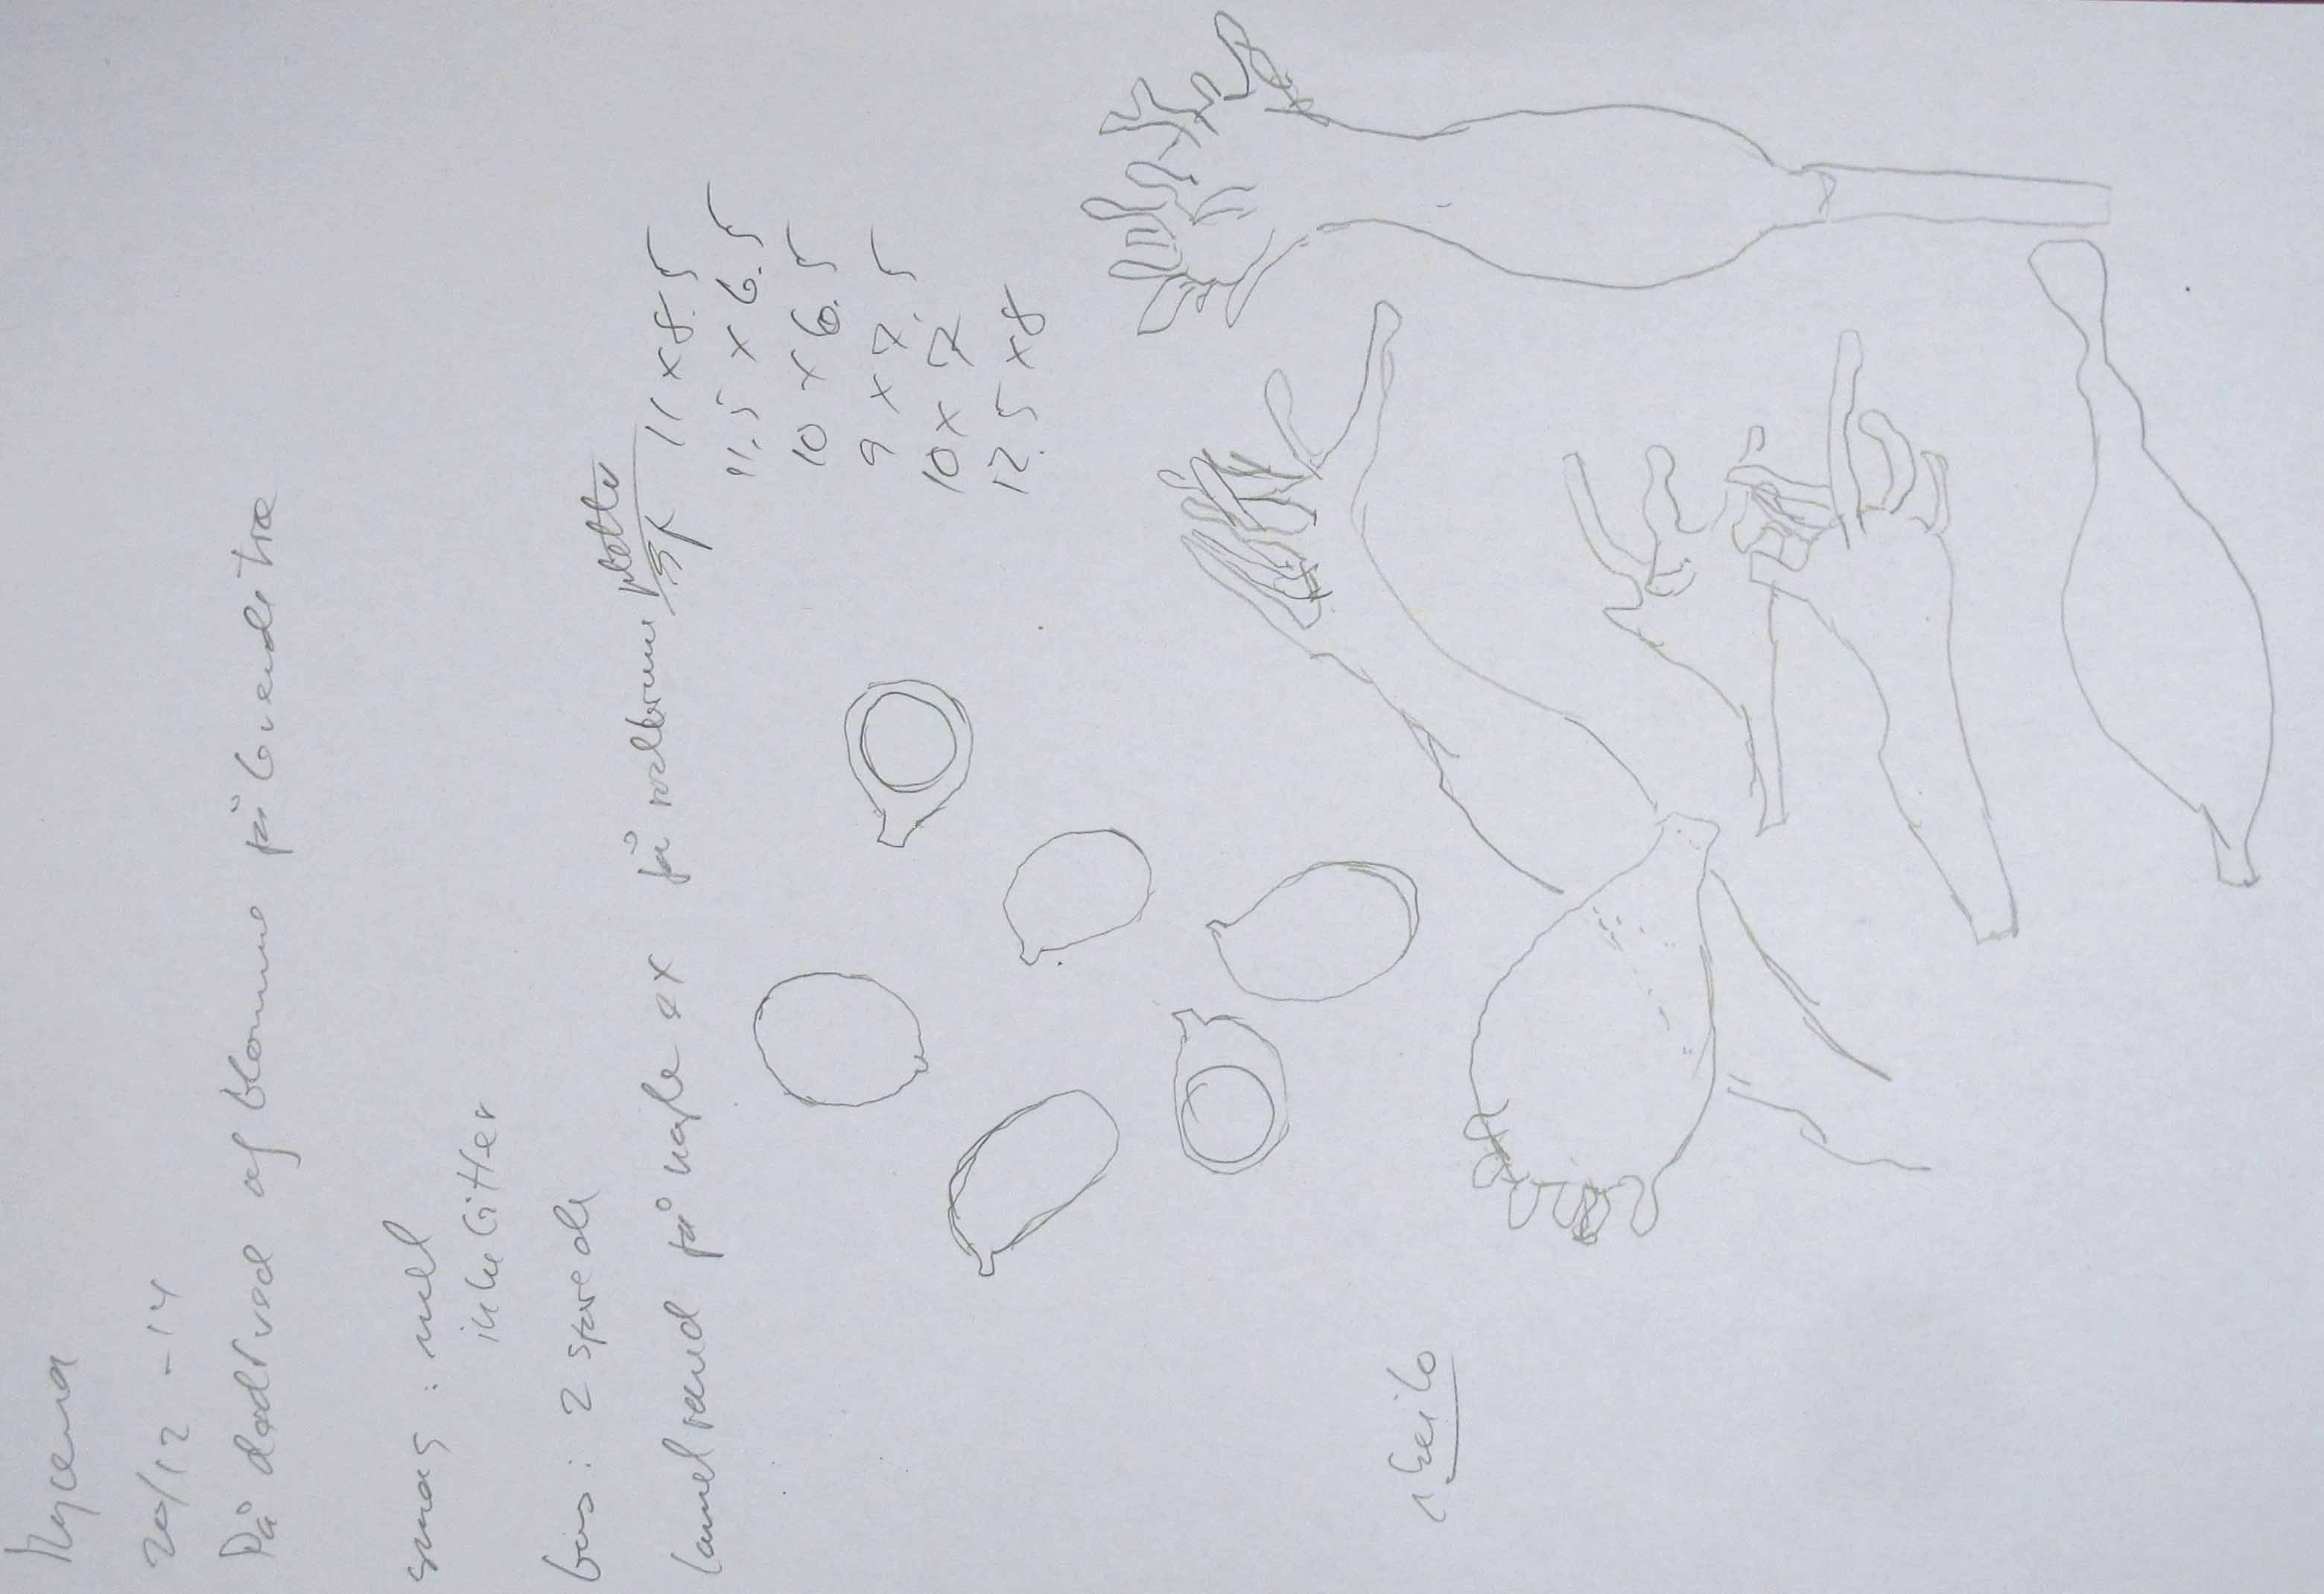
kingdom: Fungi
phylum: Basidiomycota
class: Agaricomycetes
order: Agaricales
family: Mycenaceae
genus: Mycena
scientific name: Mycena galericulata
